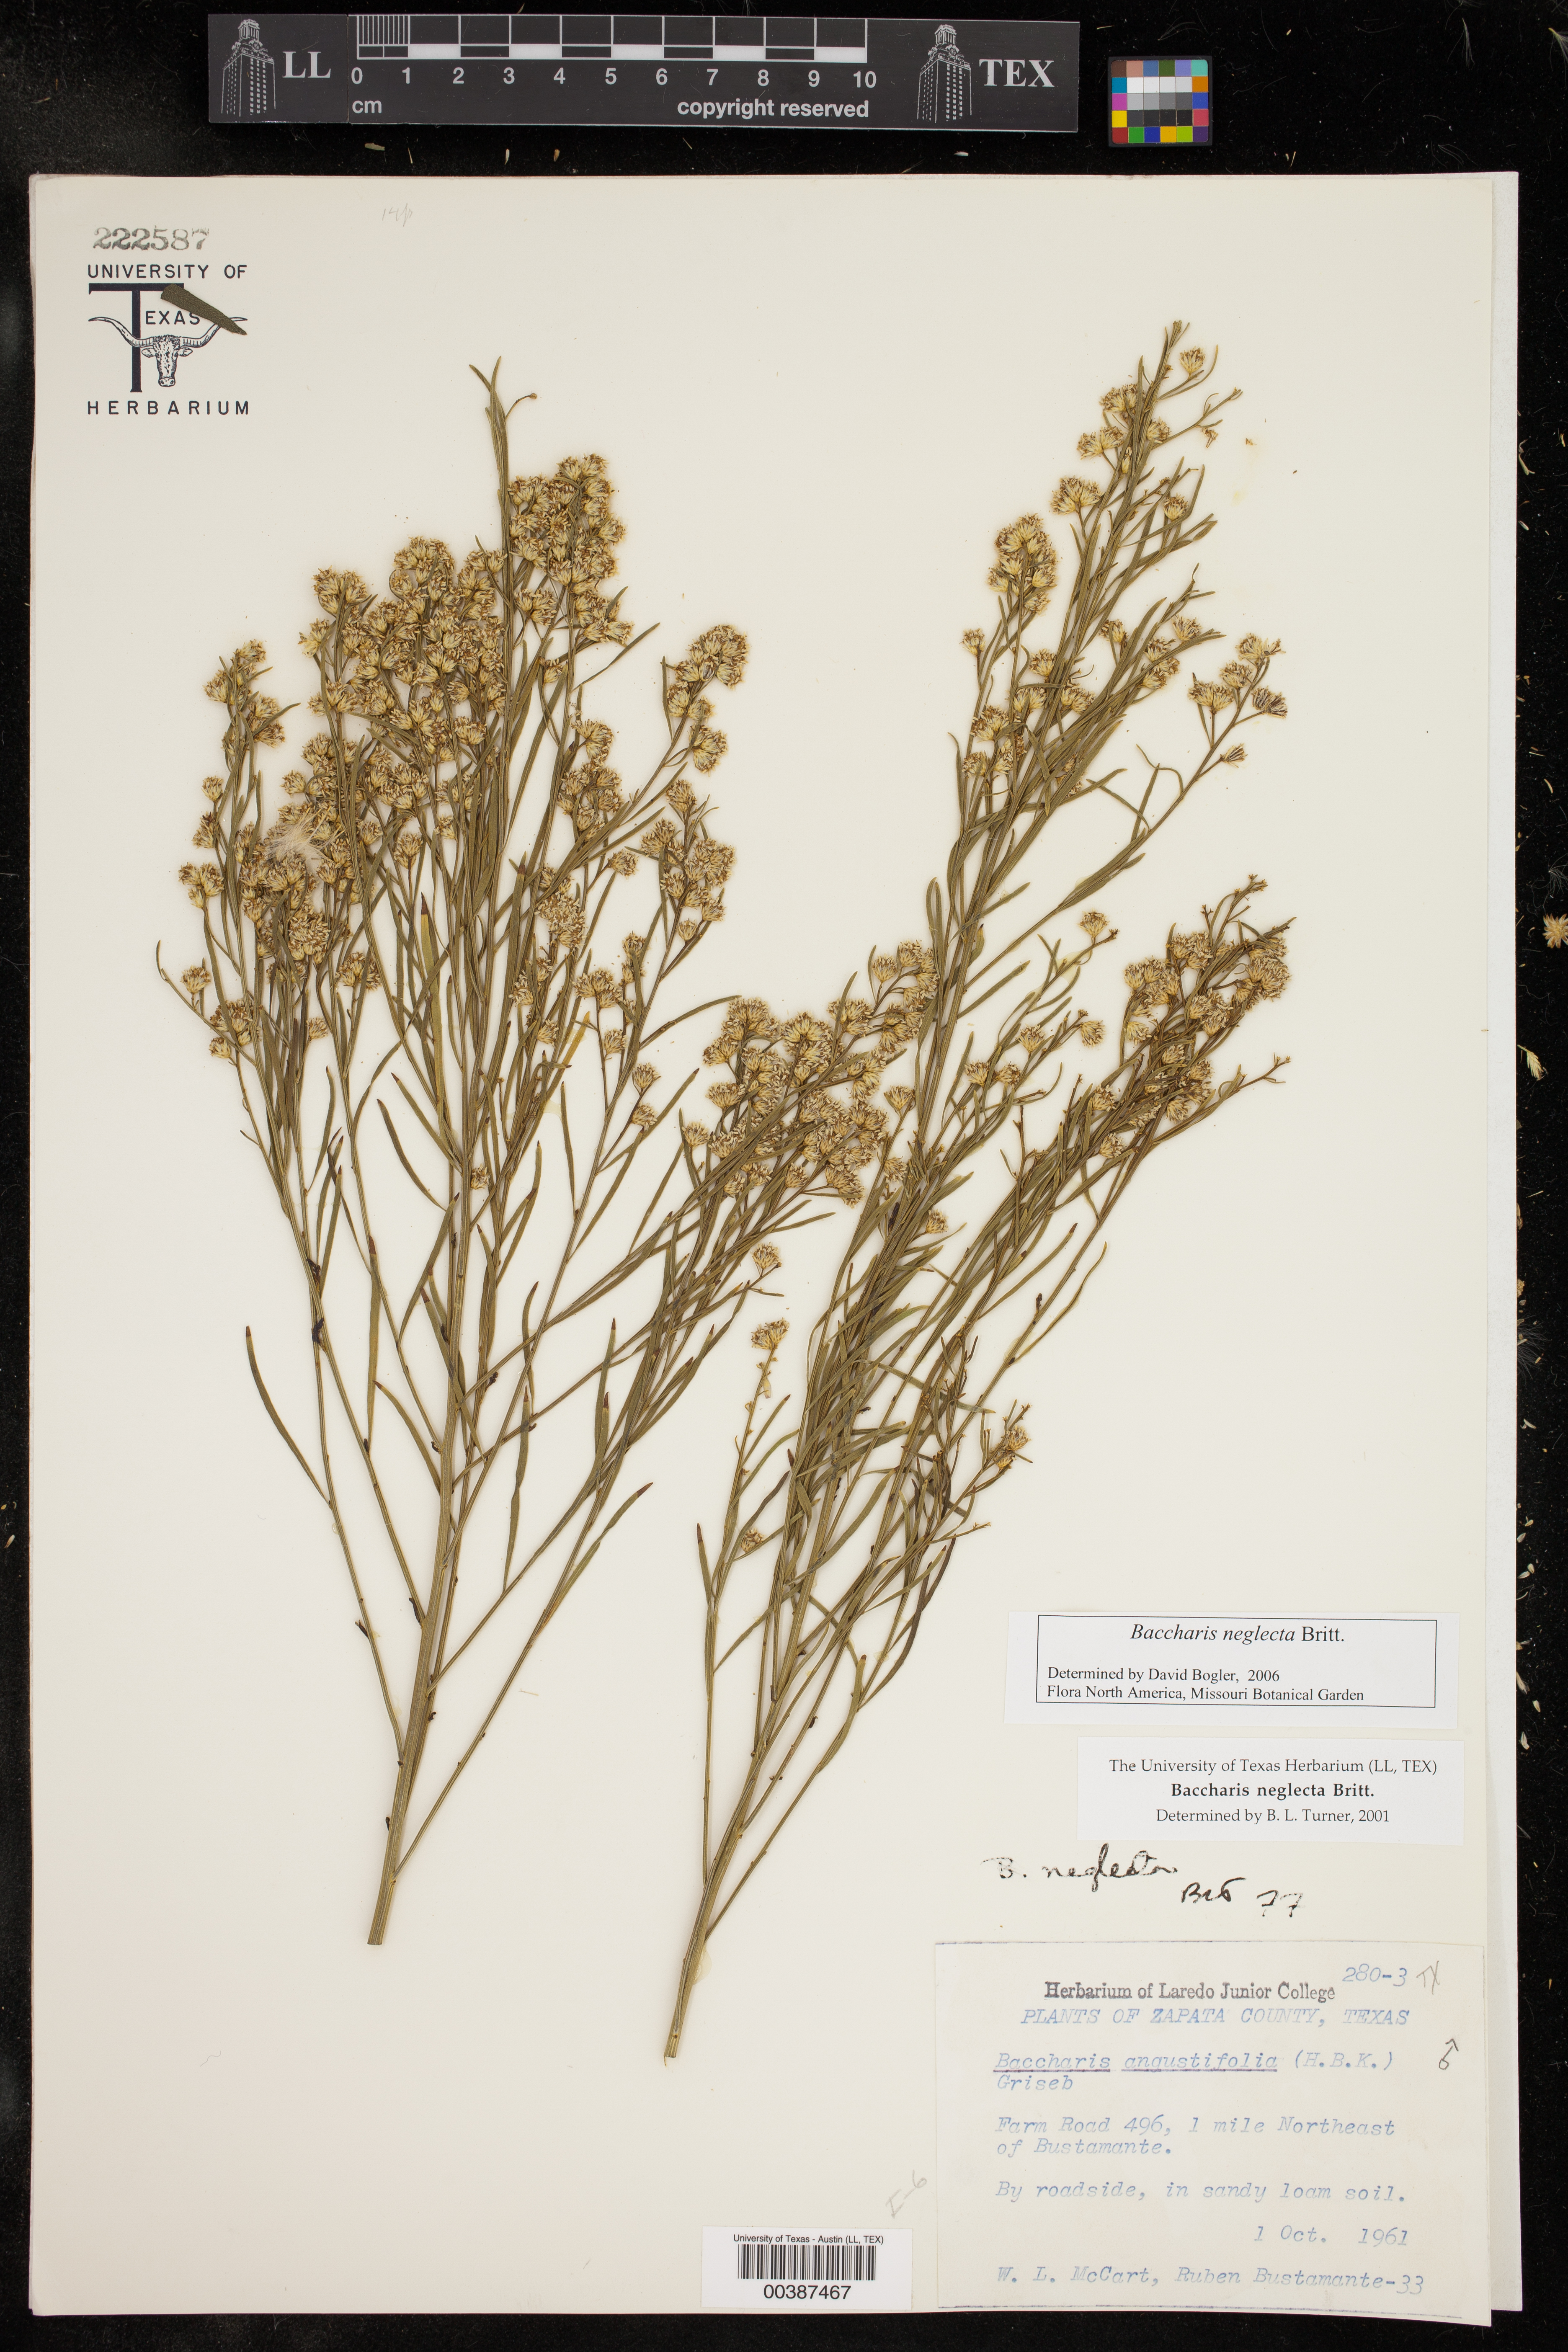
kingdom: Plantae
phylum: Tracheophyta
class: Magnoliopsida
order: Asterales
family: Asteraceae
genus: Baccharis
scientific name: Baccharis neglecta
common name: Roosevelt-weed
